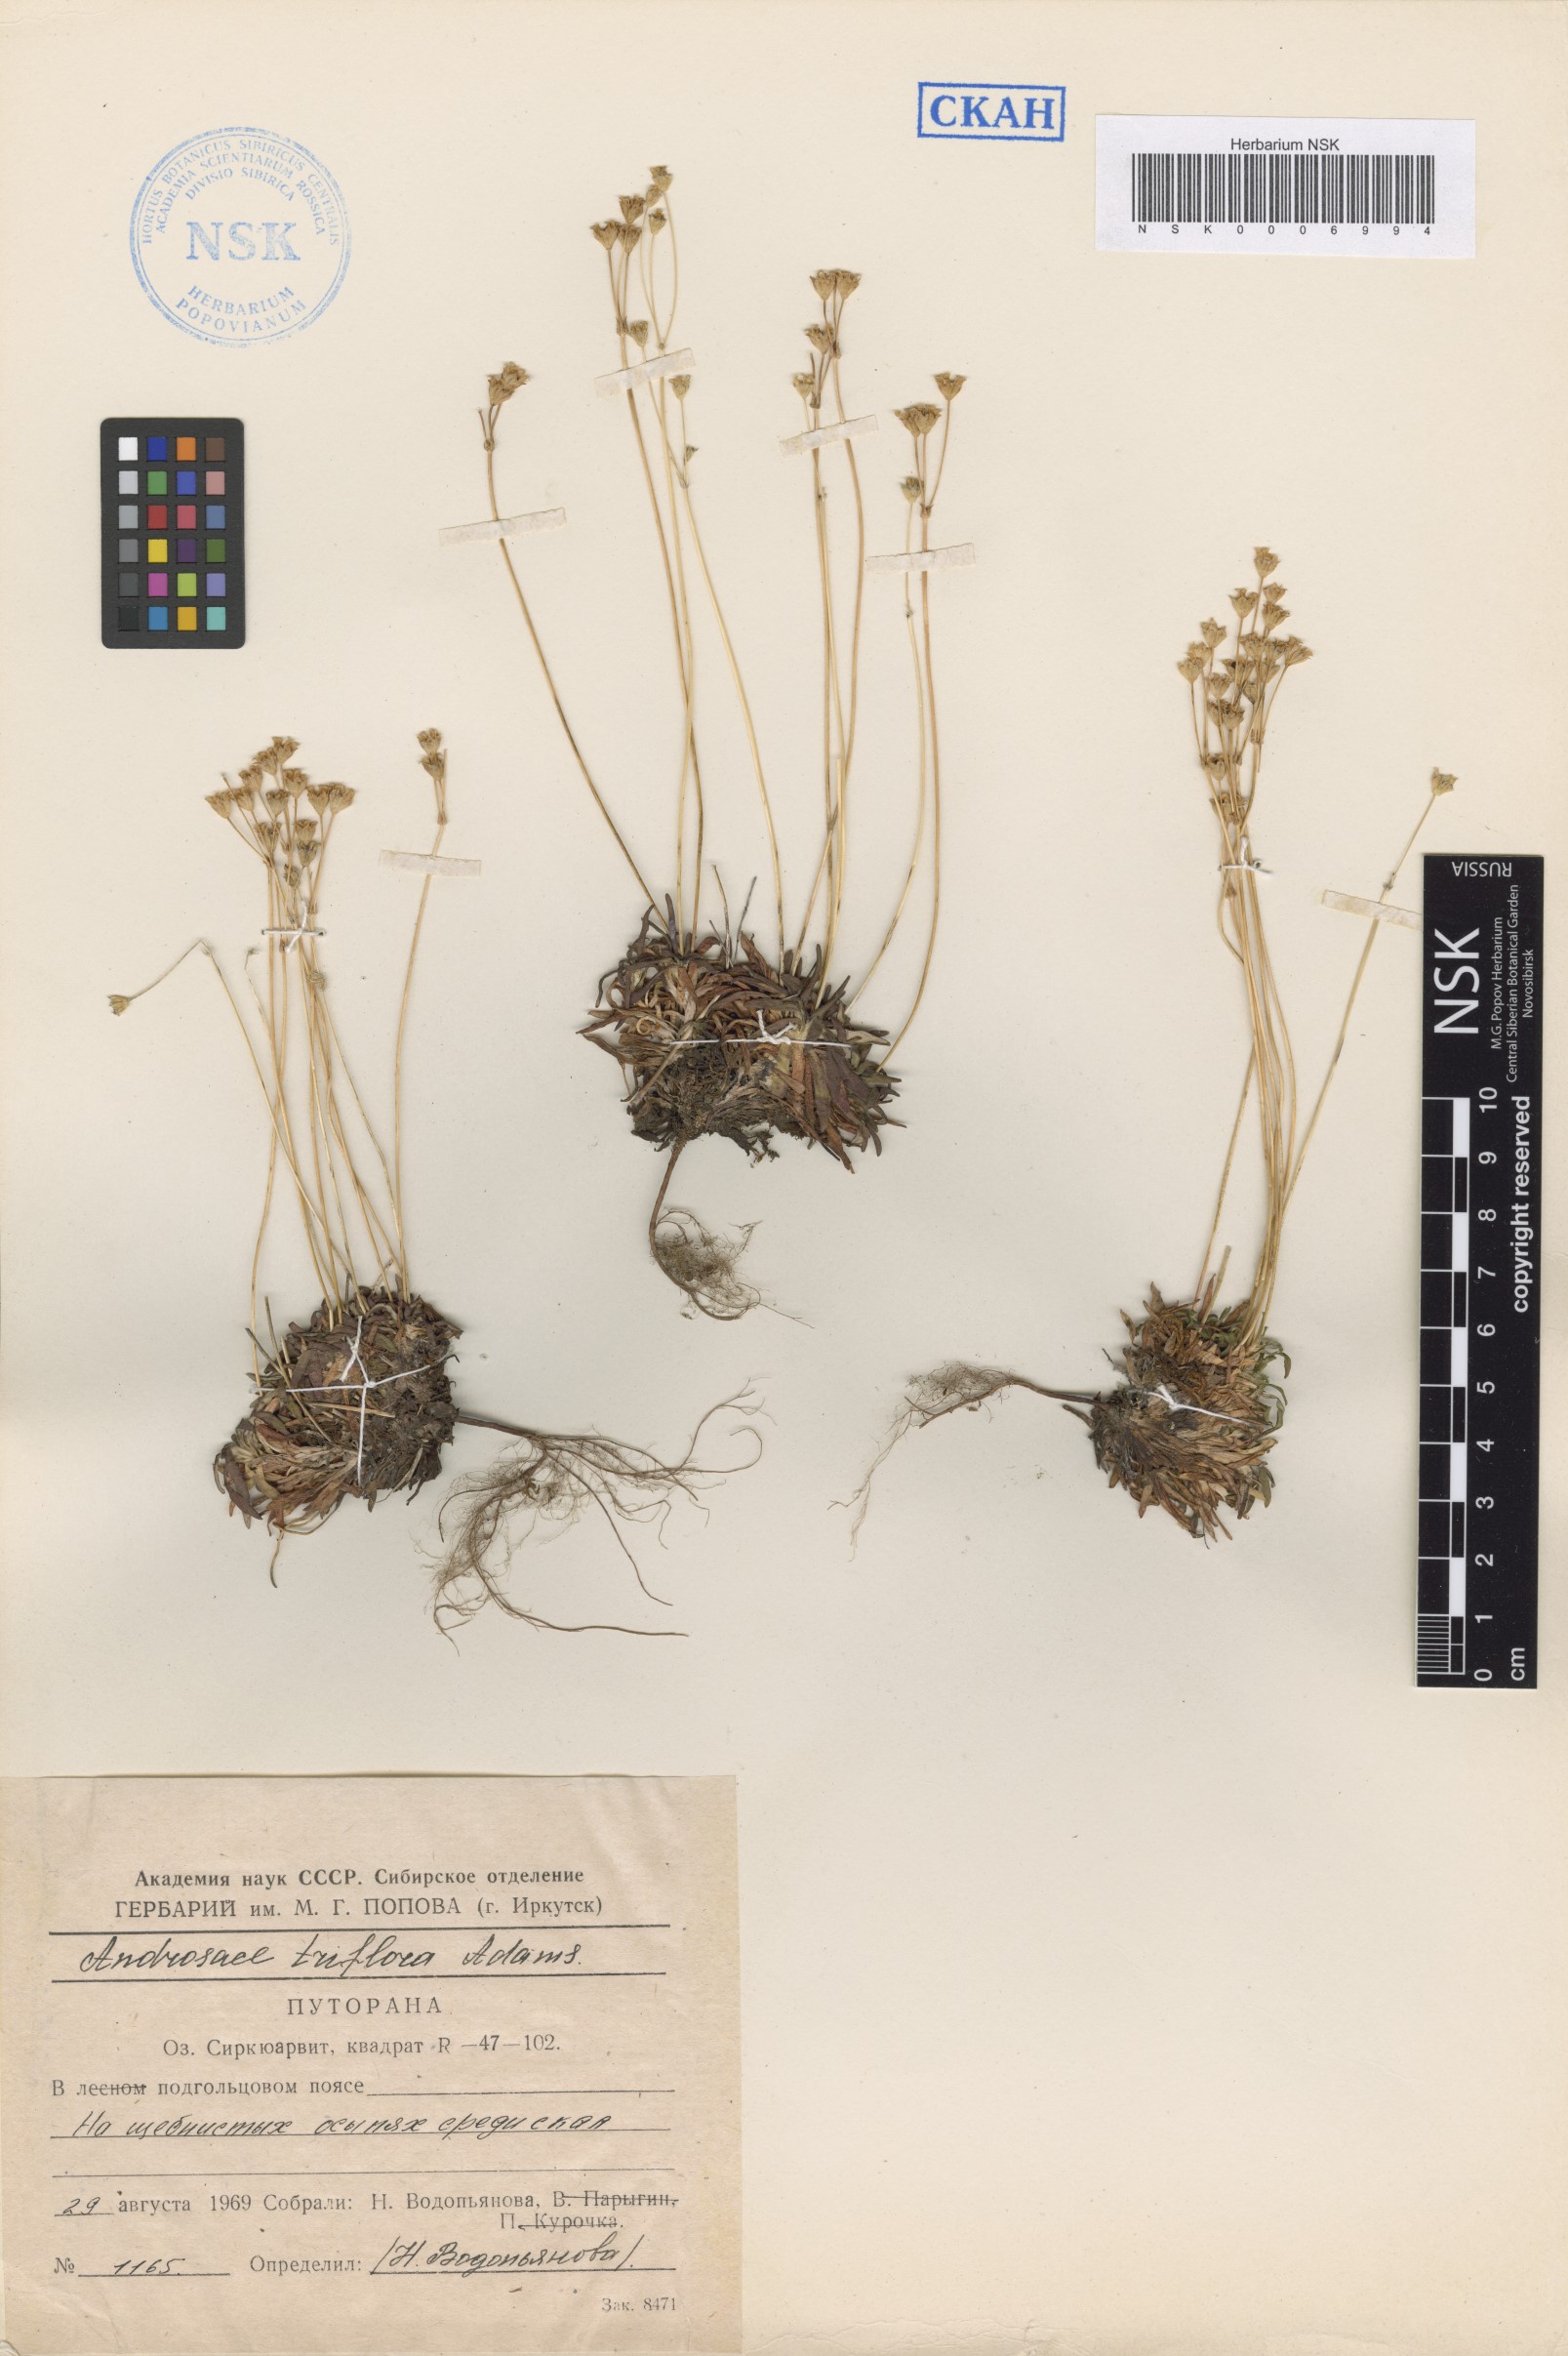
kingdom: Plantae
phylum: Tracheophyta
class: Magnoliopsida
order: Ericales
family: Primulaceae
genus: Androsace
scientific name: Androsace triflora
